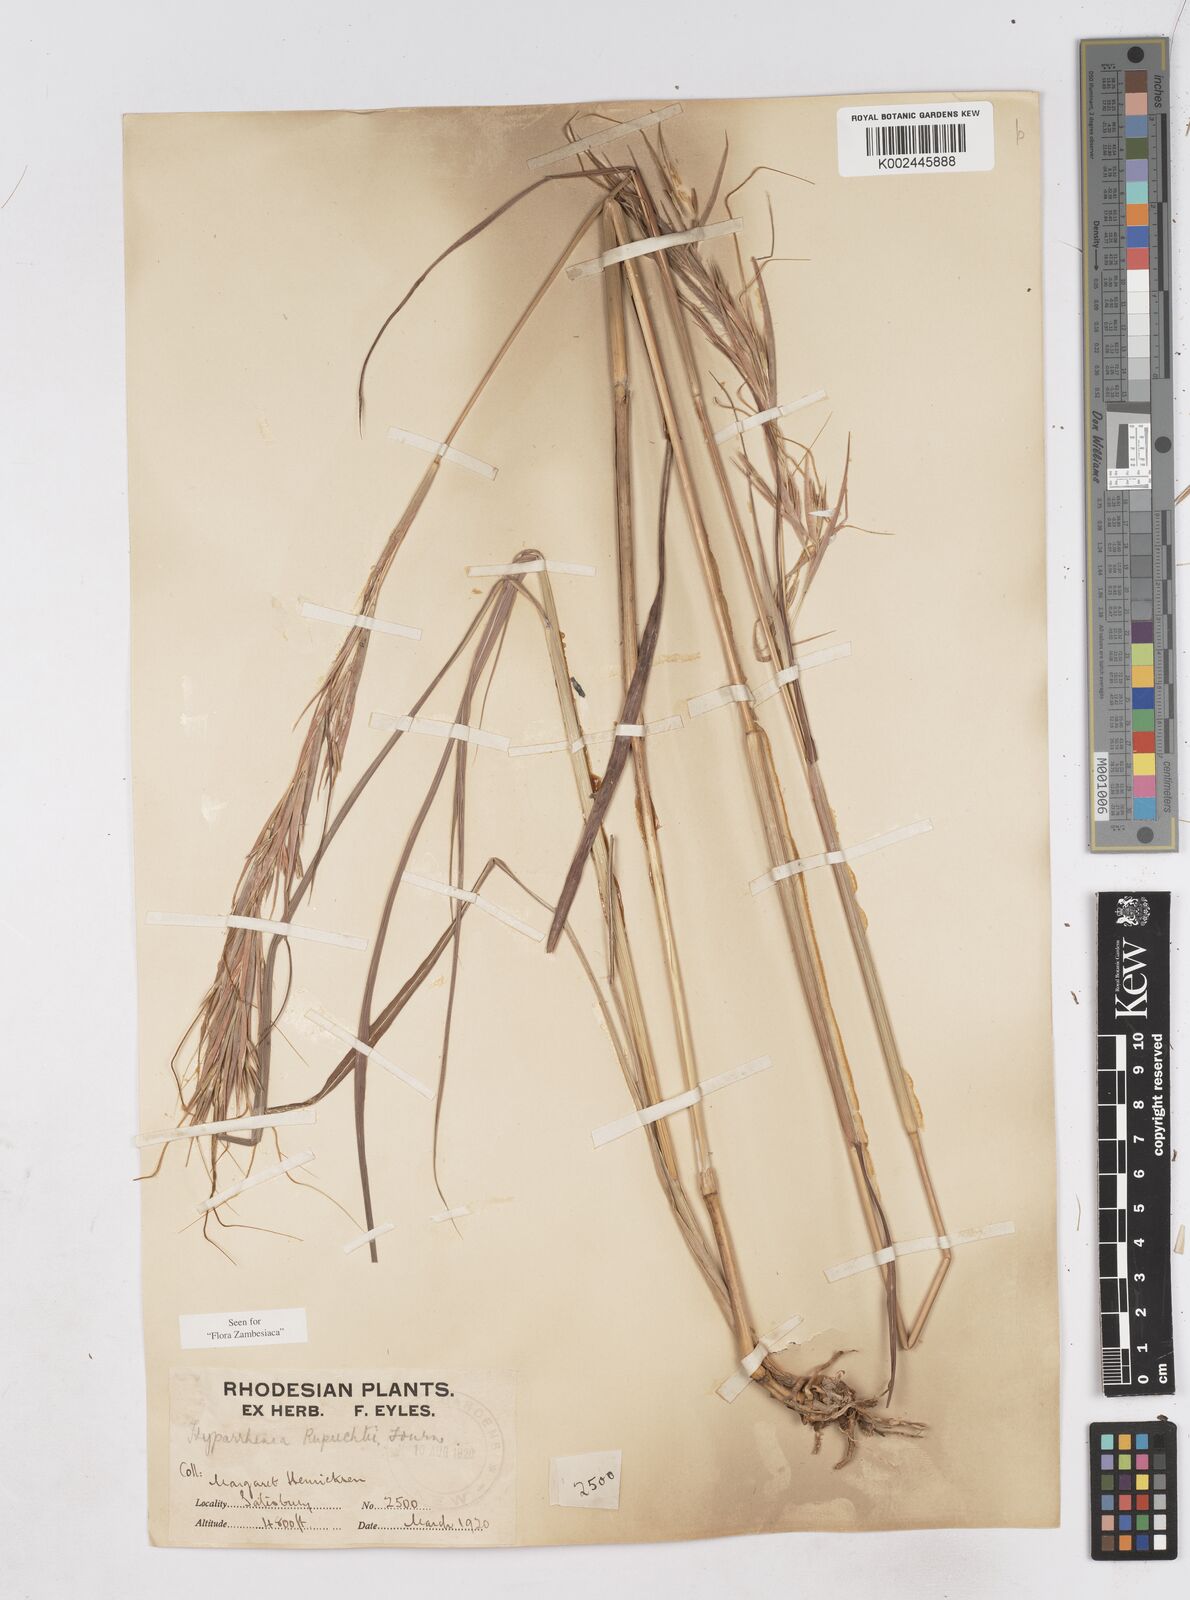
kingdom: Plantae
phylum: Tracheophyta
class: Liliopsida
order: Poales
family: Poaceae
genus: Hyperthelia
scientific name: Hyperthelia dissoluta
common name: Yellow thatching grass
